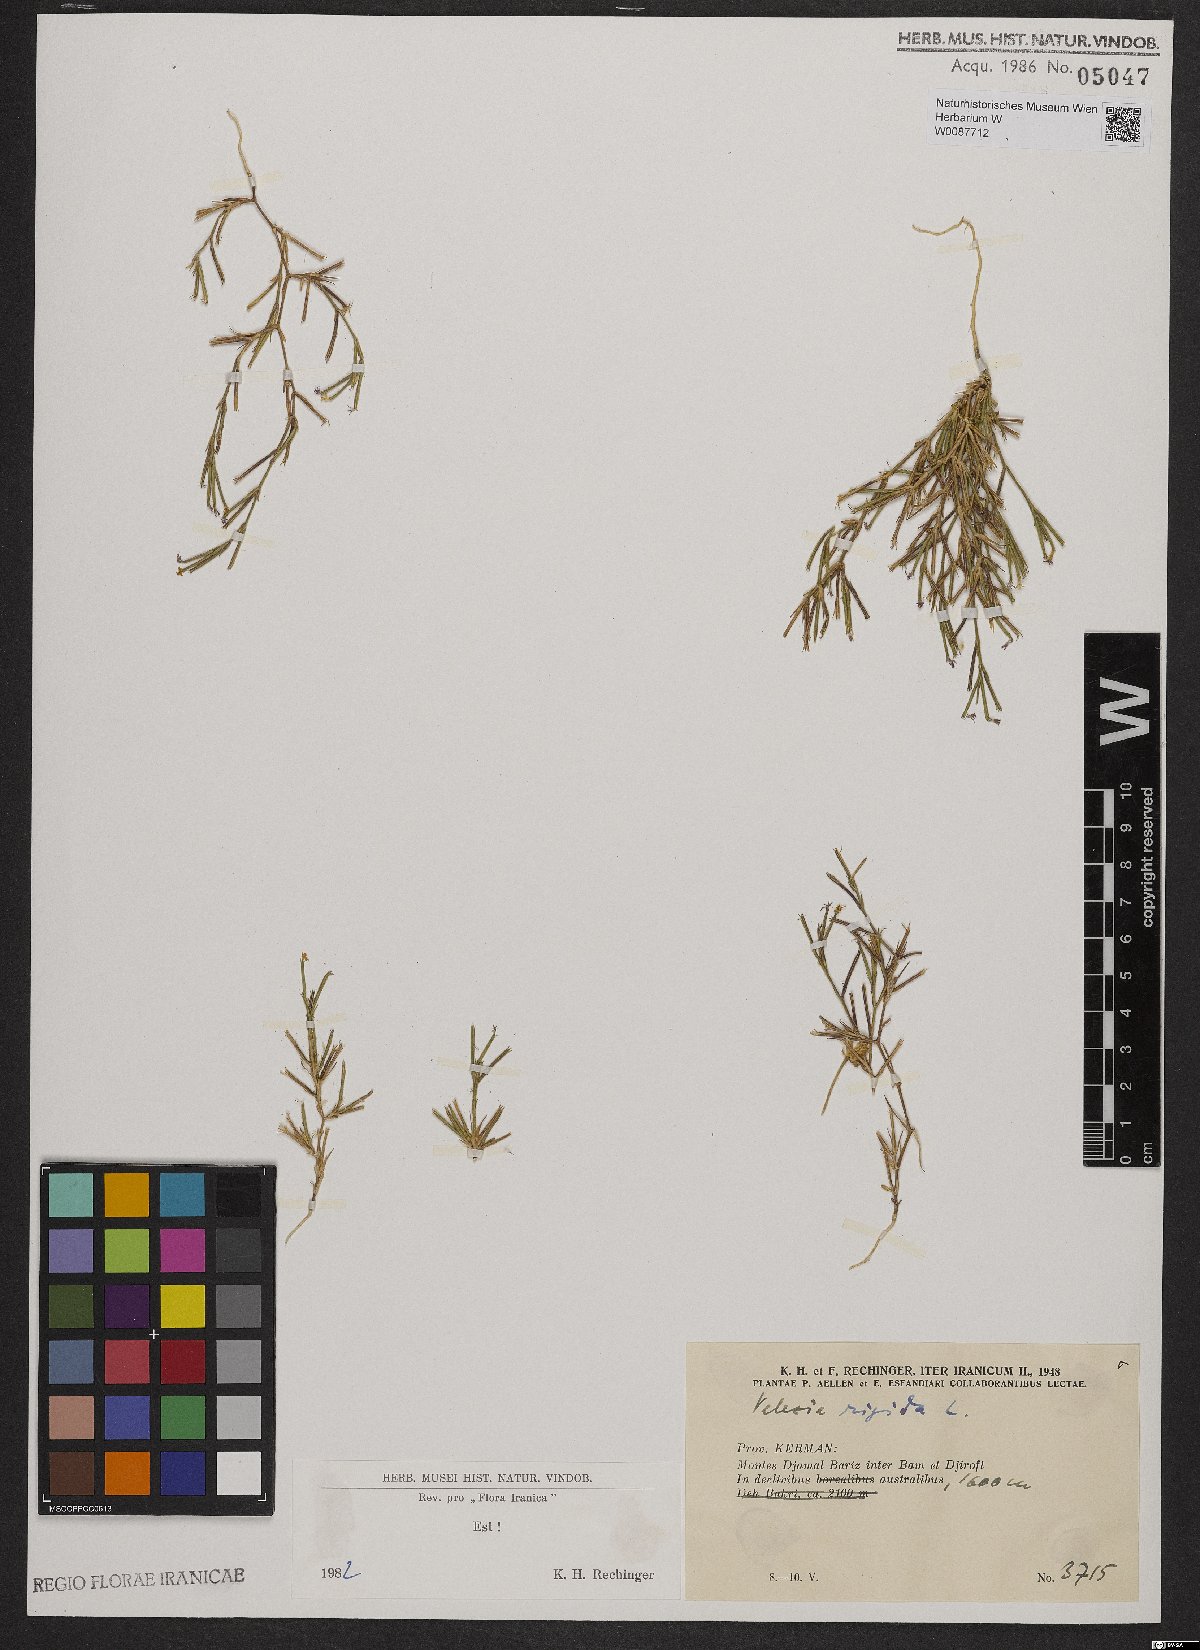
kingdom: Plantae
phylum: Tracheophyta
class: Magnoliopsida
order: Caryophyllales
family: Caryophyllaceae
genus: Dianthus
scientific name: Dianthus nudiflorus
